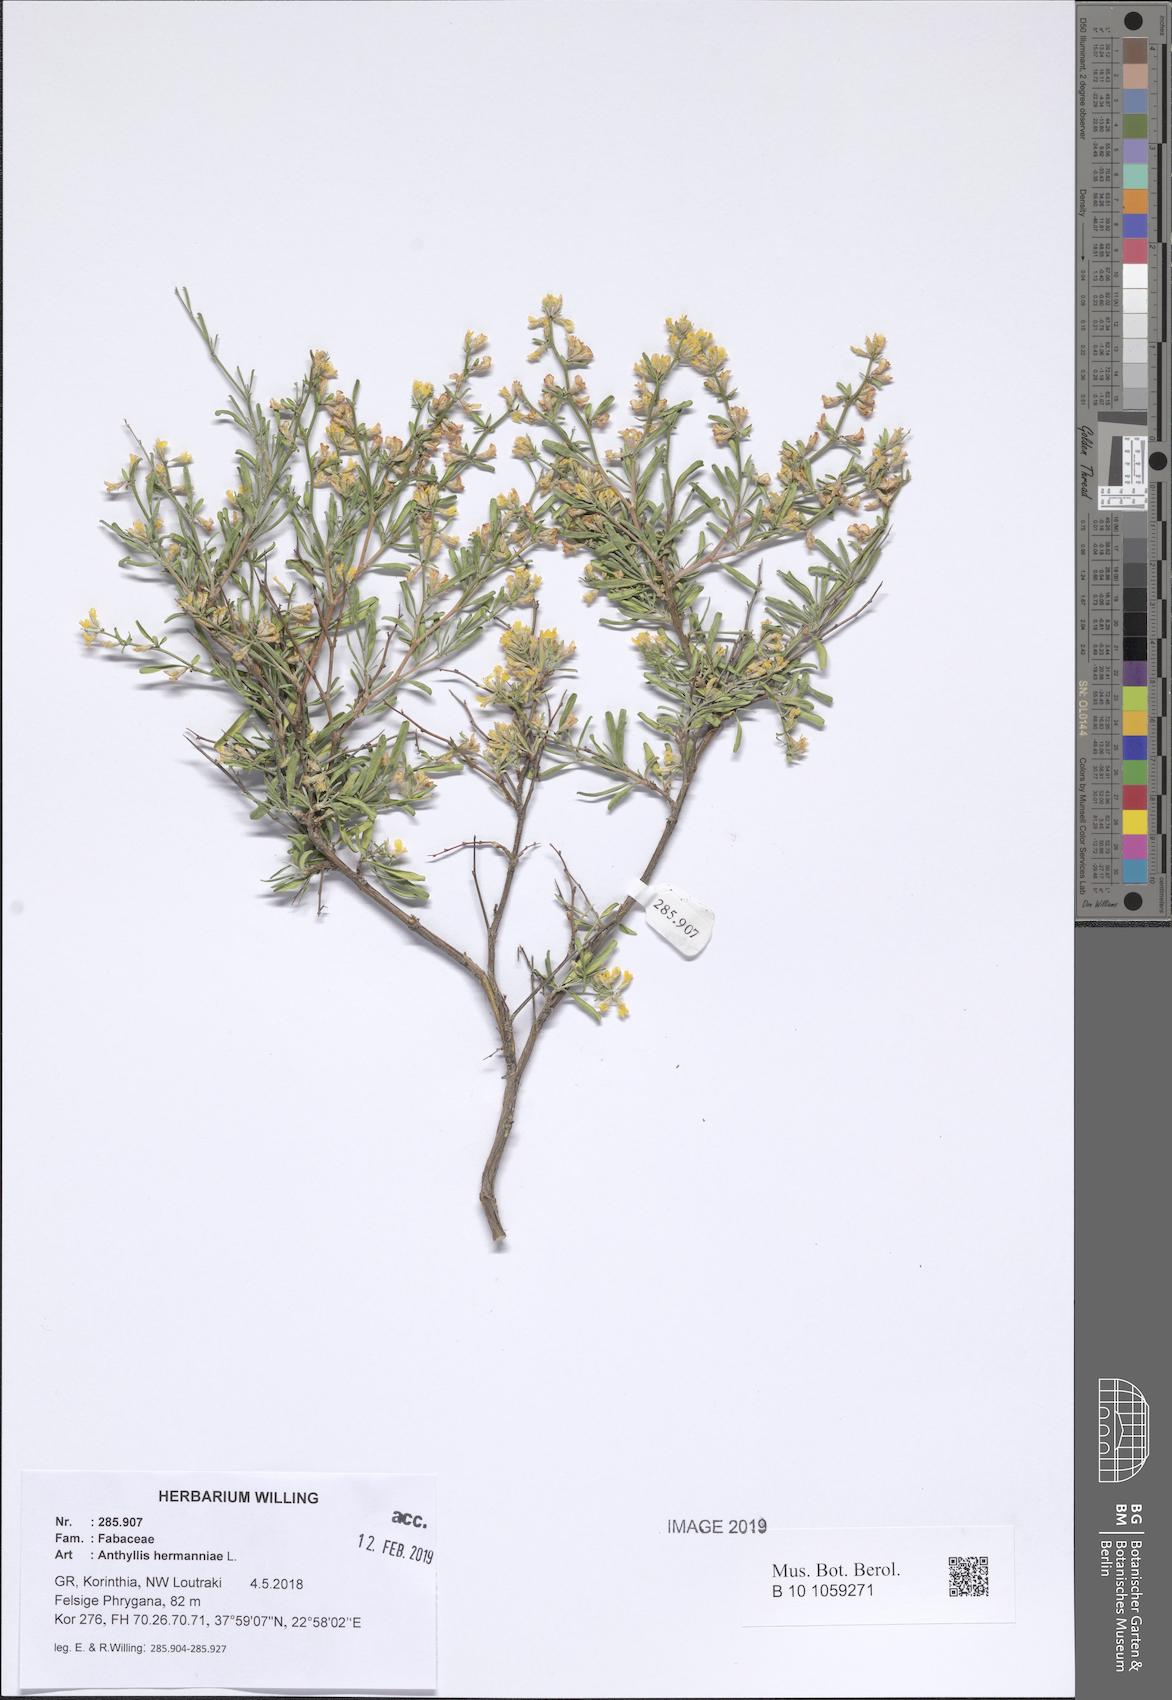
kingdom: Plantae
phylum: Tracheophyta
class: Magnoliopsida
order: Fabales
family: Fabaceae
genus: Anthyllis
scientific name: Anthyllis hermanniae
